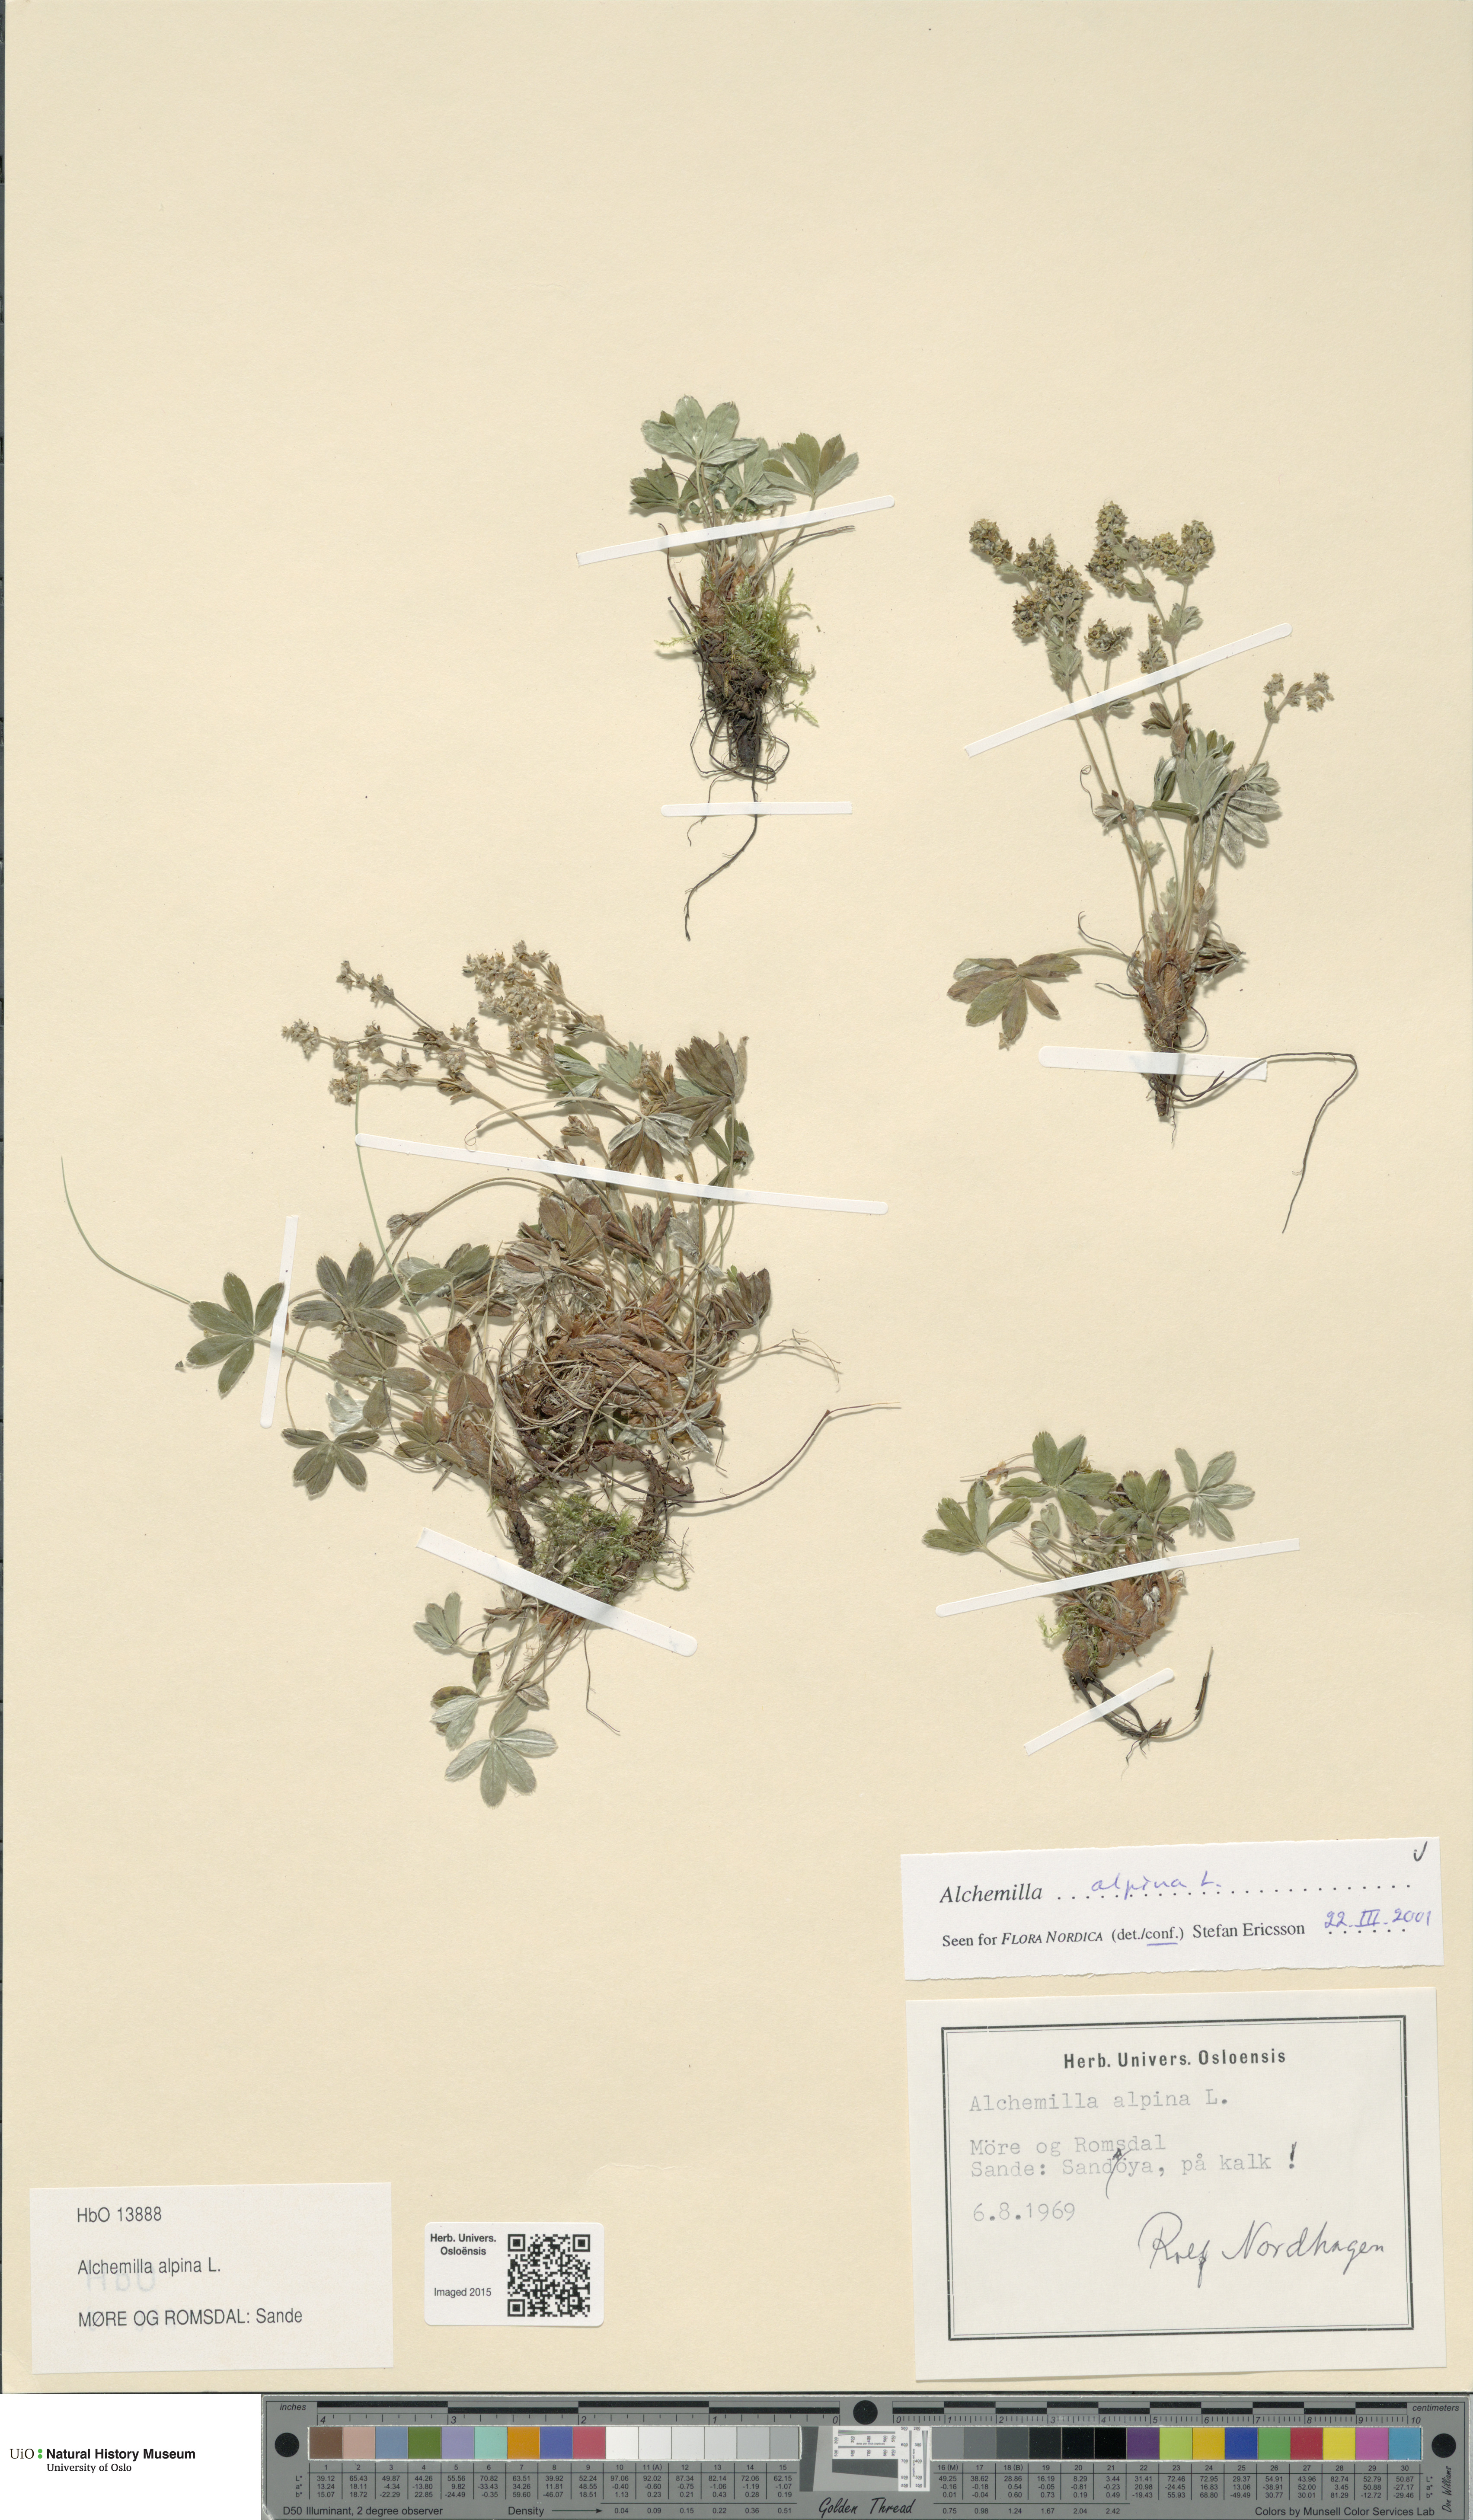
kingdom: Plantae
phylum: Tracheophyta
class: Magnoliopsida
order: Rosales
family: Rosaceae
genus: Alchemilla
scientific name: Alchemilla alpina
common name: Alpine lady's-mantle
